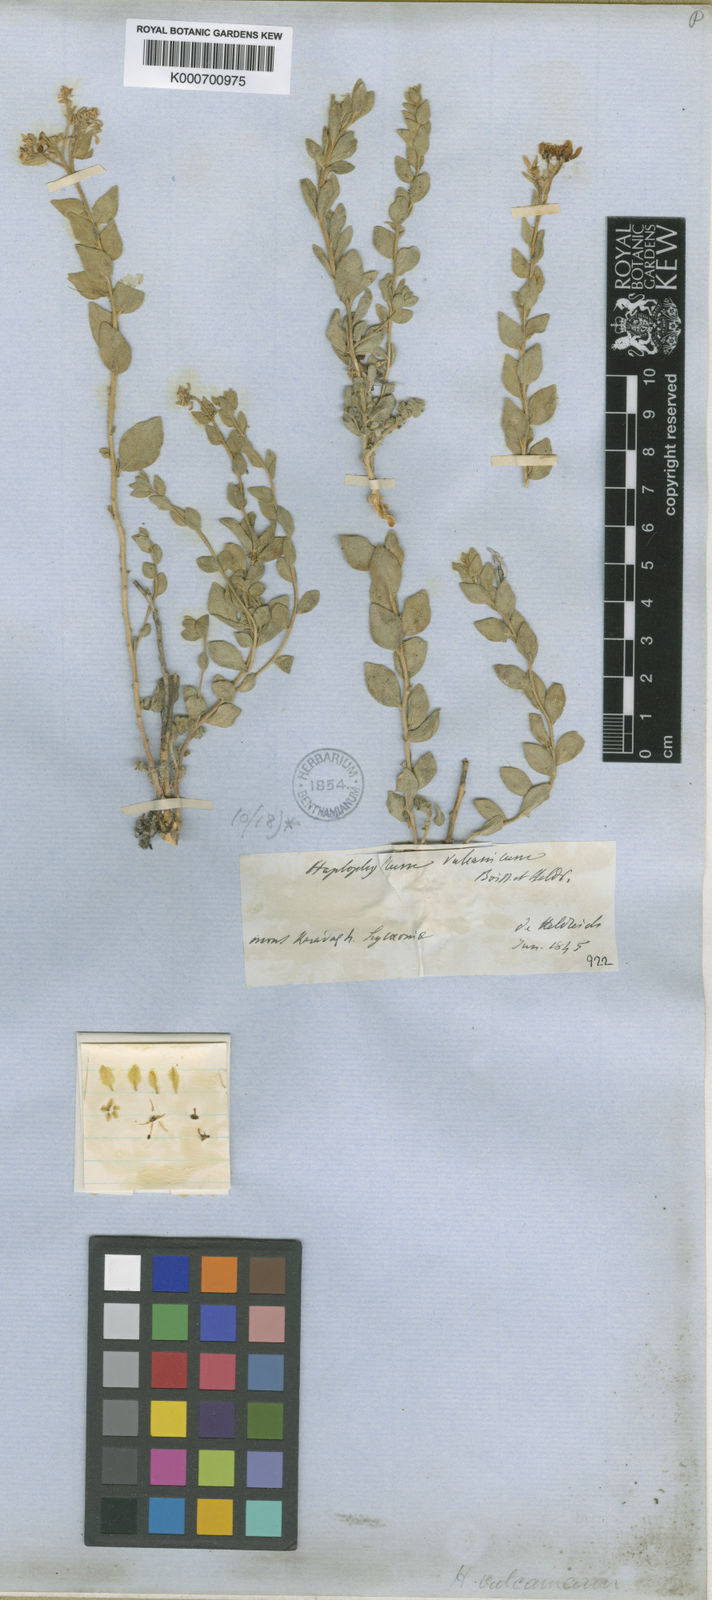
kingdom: Plantae
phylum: Tracheophyta
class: Magnoliopsida
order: Sapindales
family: Rutaceae
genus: Haplophyllum
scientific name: Haplophyllum vulcanicum
